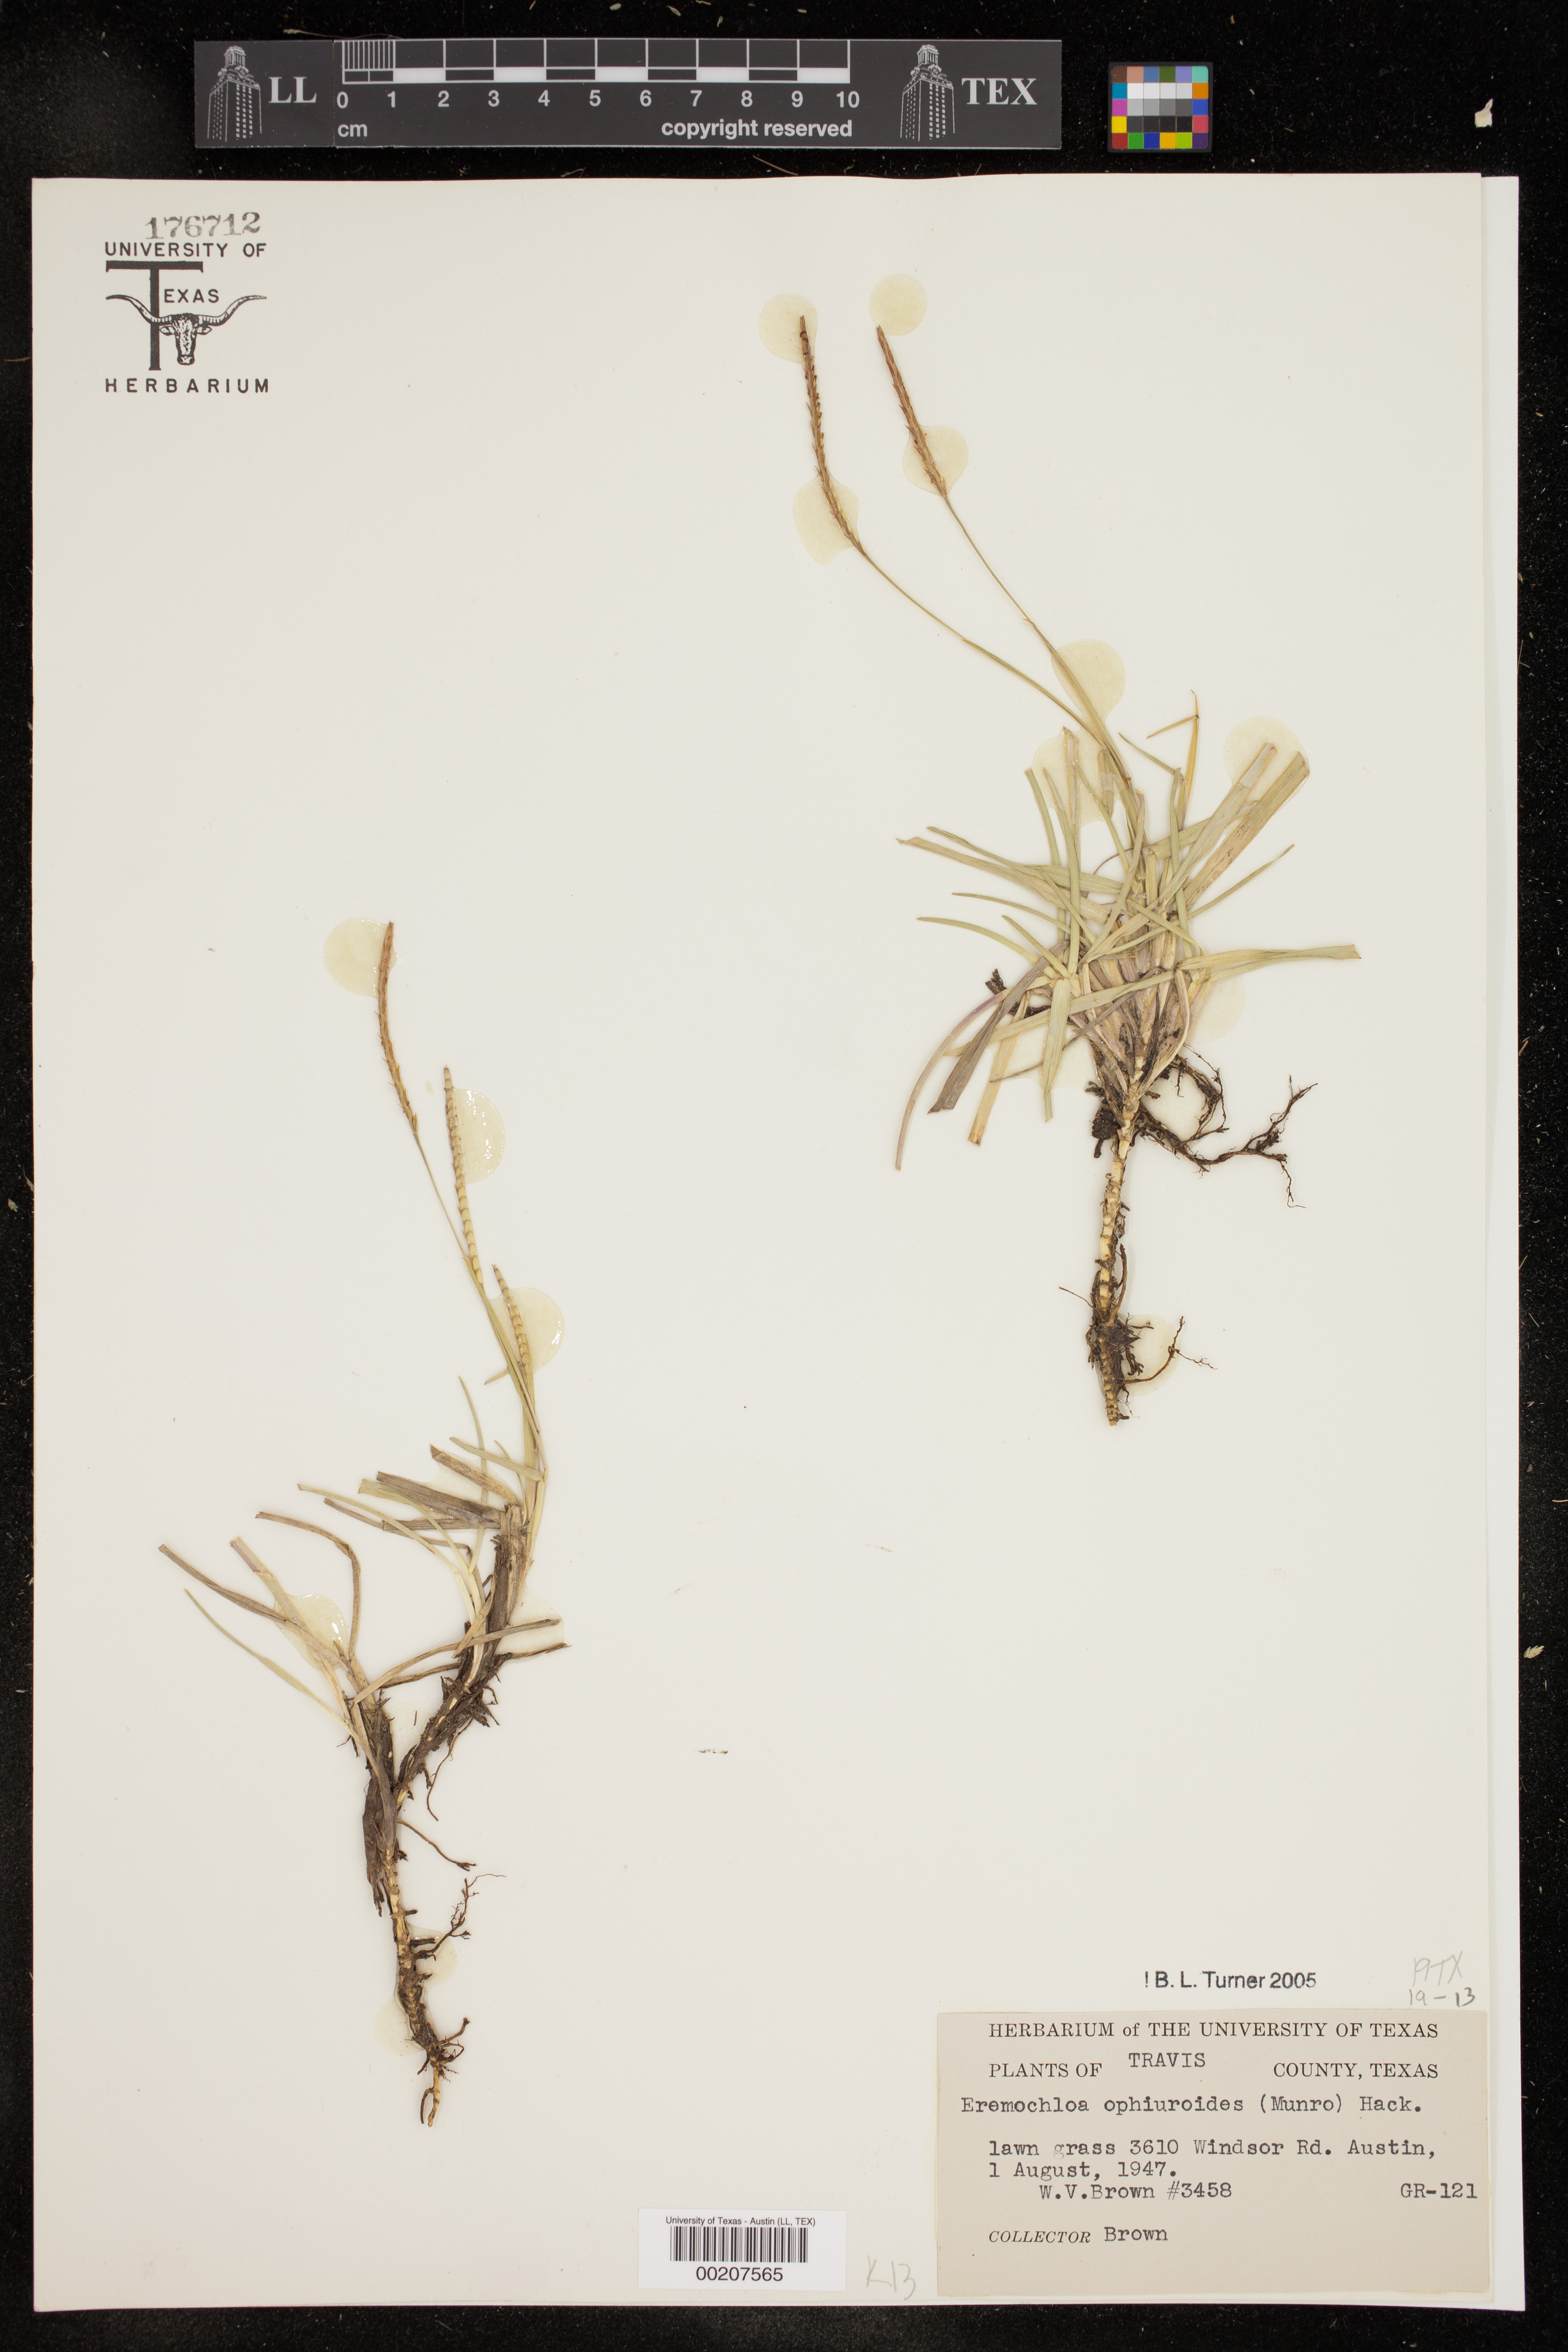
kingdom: Plantae
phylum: Tracheophyta
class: Liliopsida
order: Poales
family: Poaceae
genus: Eremochloa
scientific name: Eremochloa ophiuroides
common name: Centipede grass
